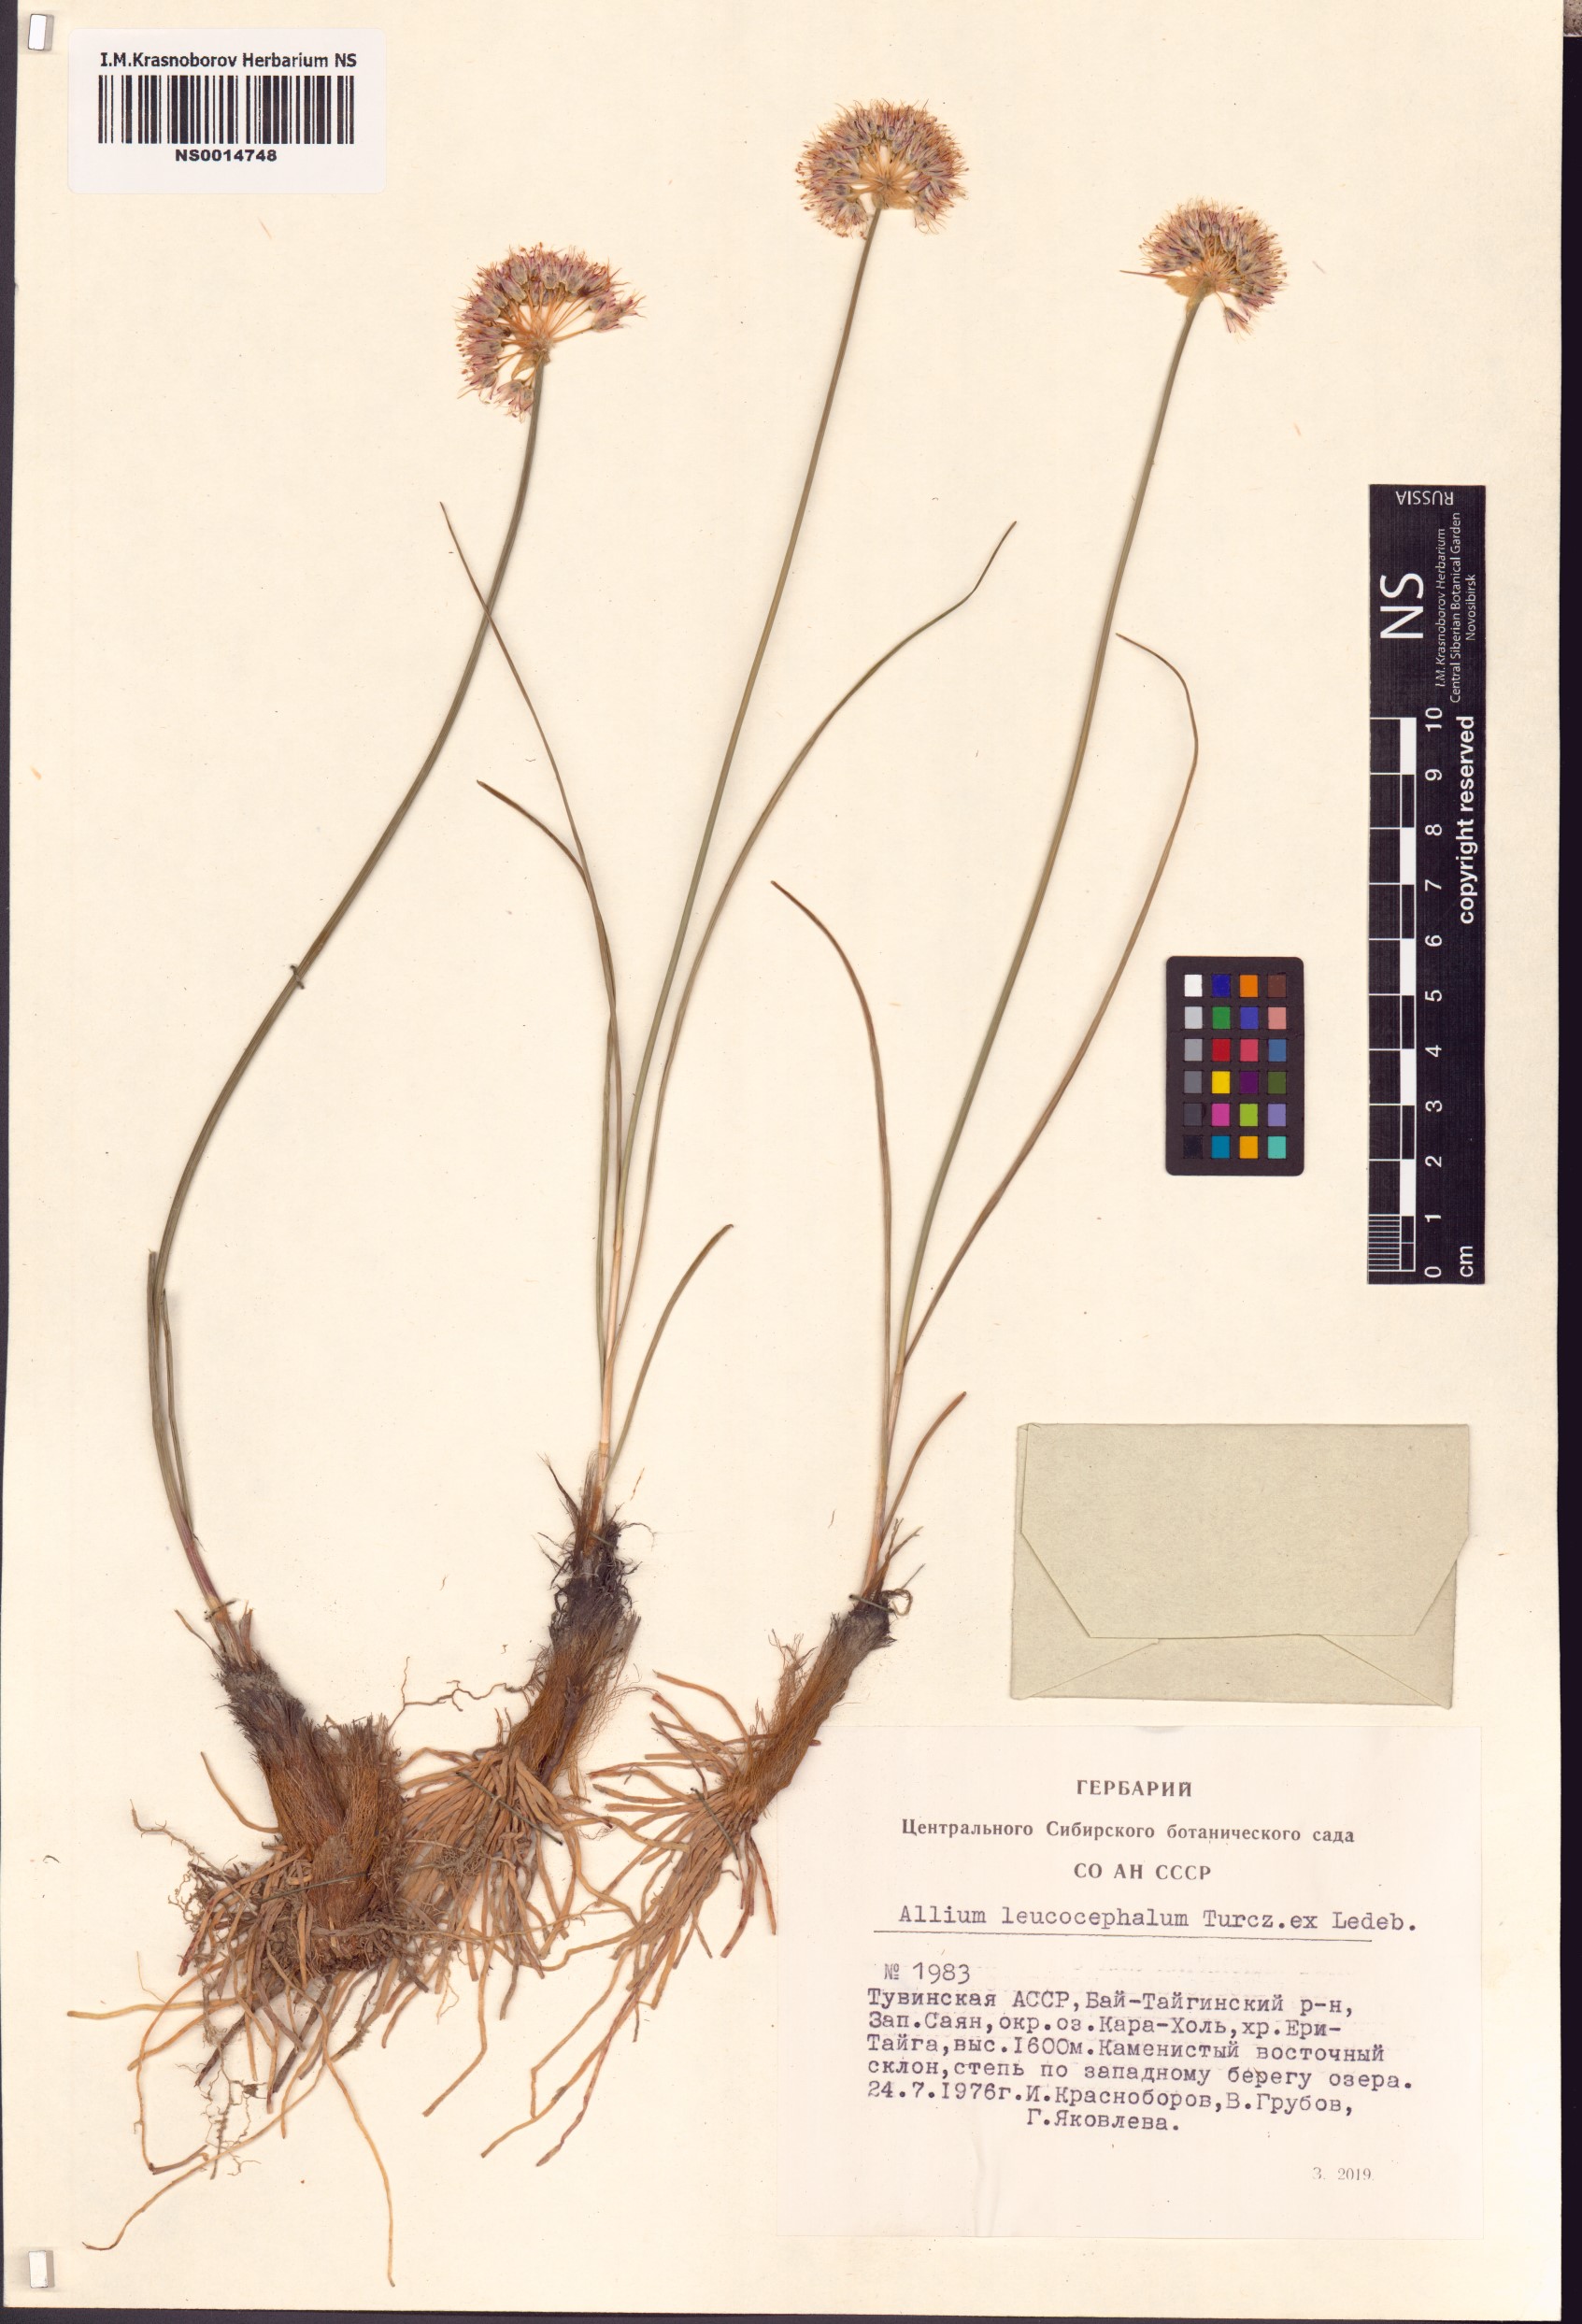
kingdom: Plantae
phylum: Tracheophyta
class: Liliopsida
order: Asparagales
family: Amaryllidaceae
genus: Allium
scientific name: Allium leucocephalum
